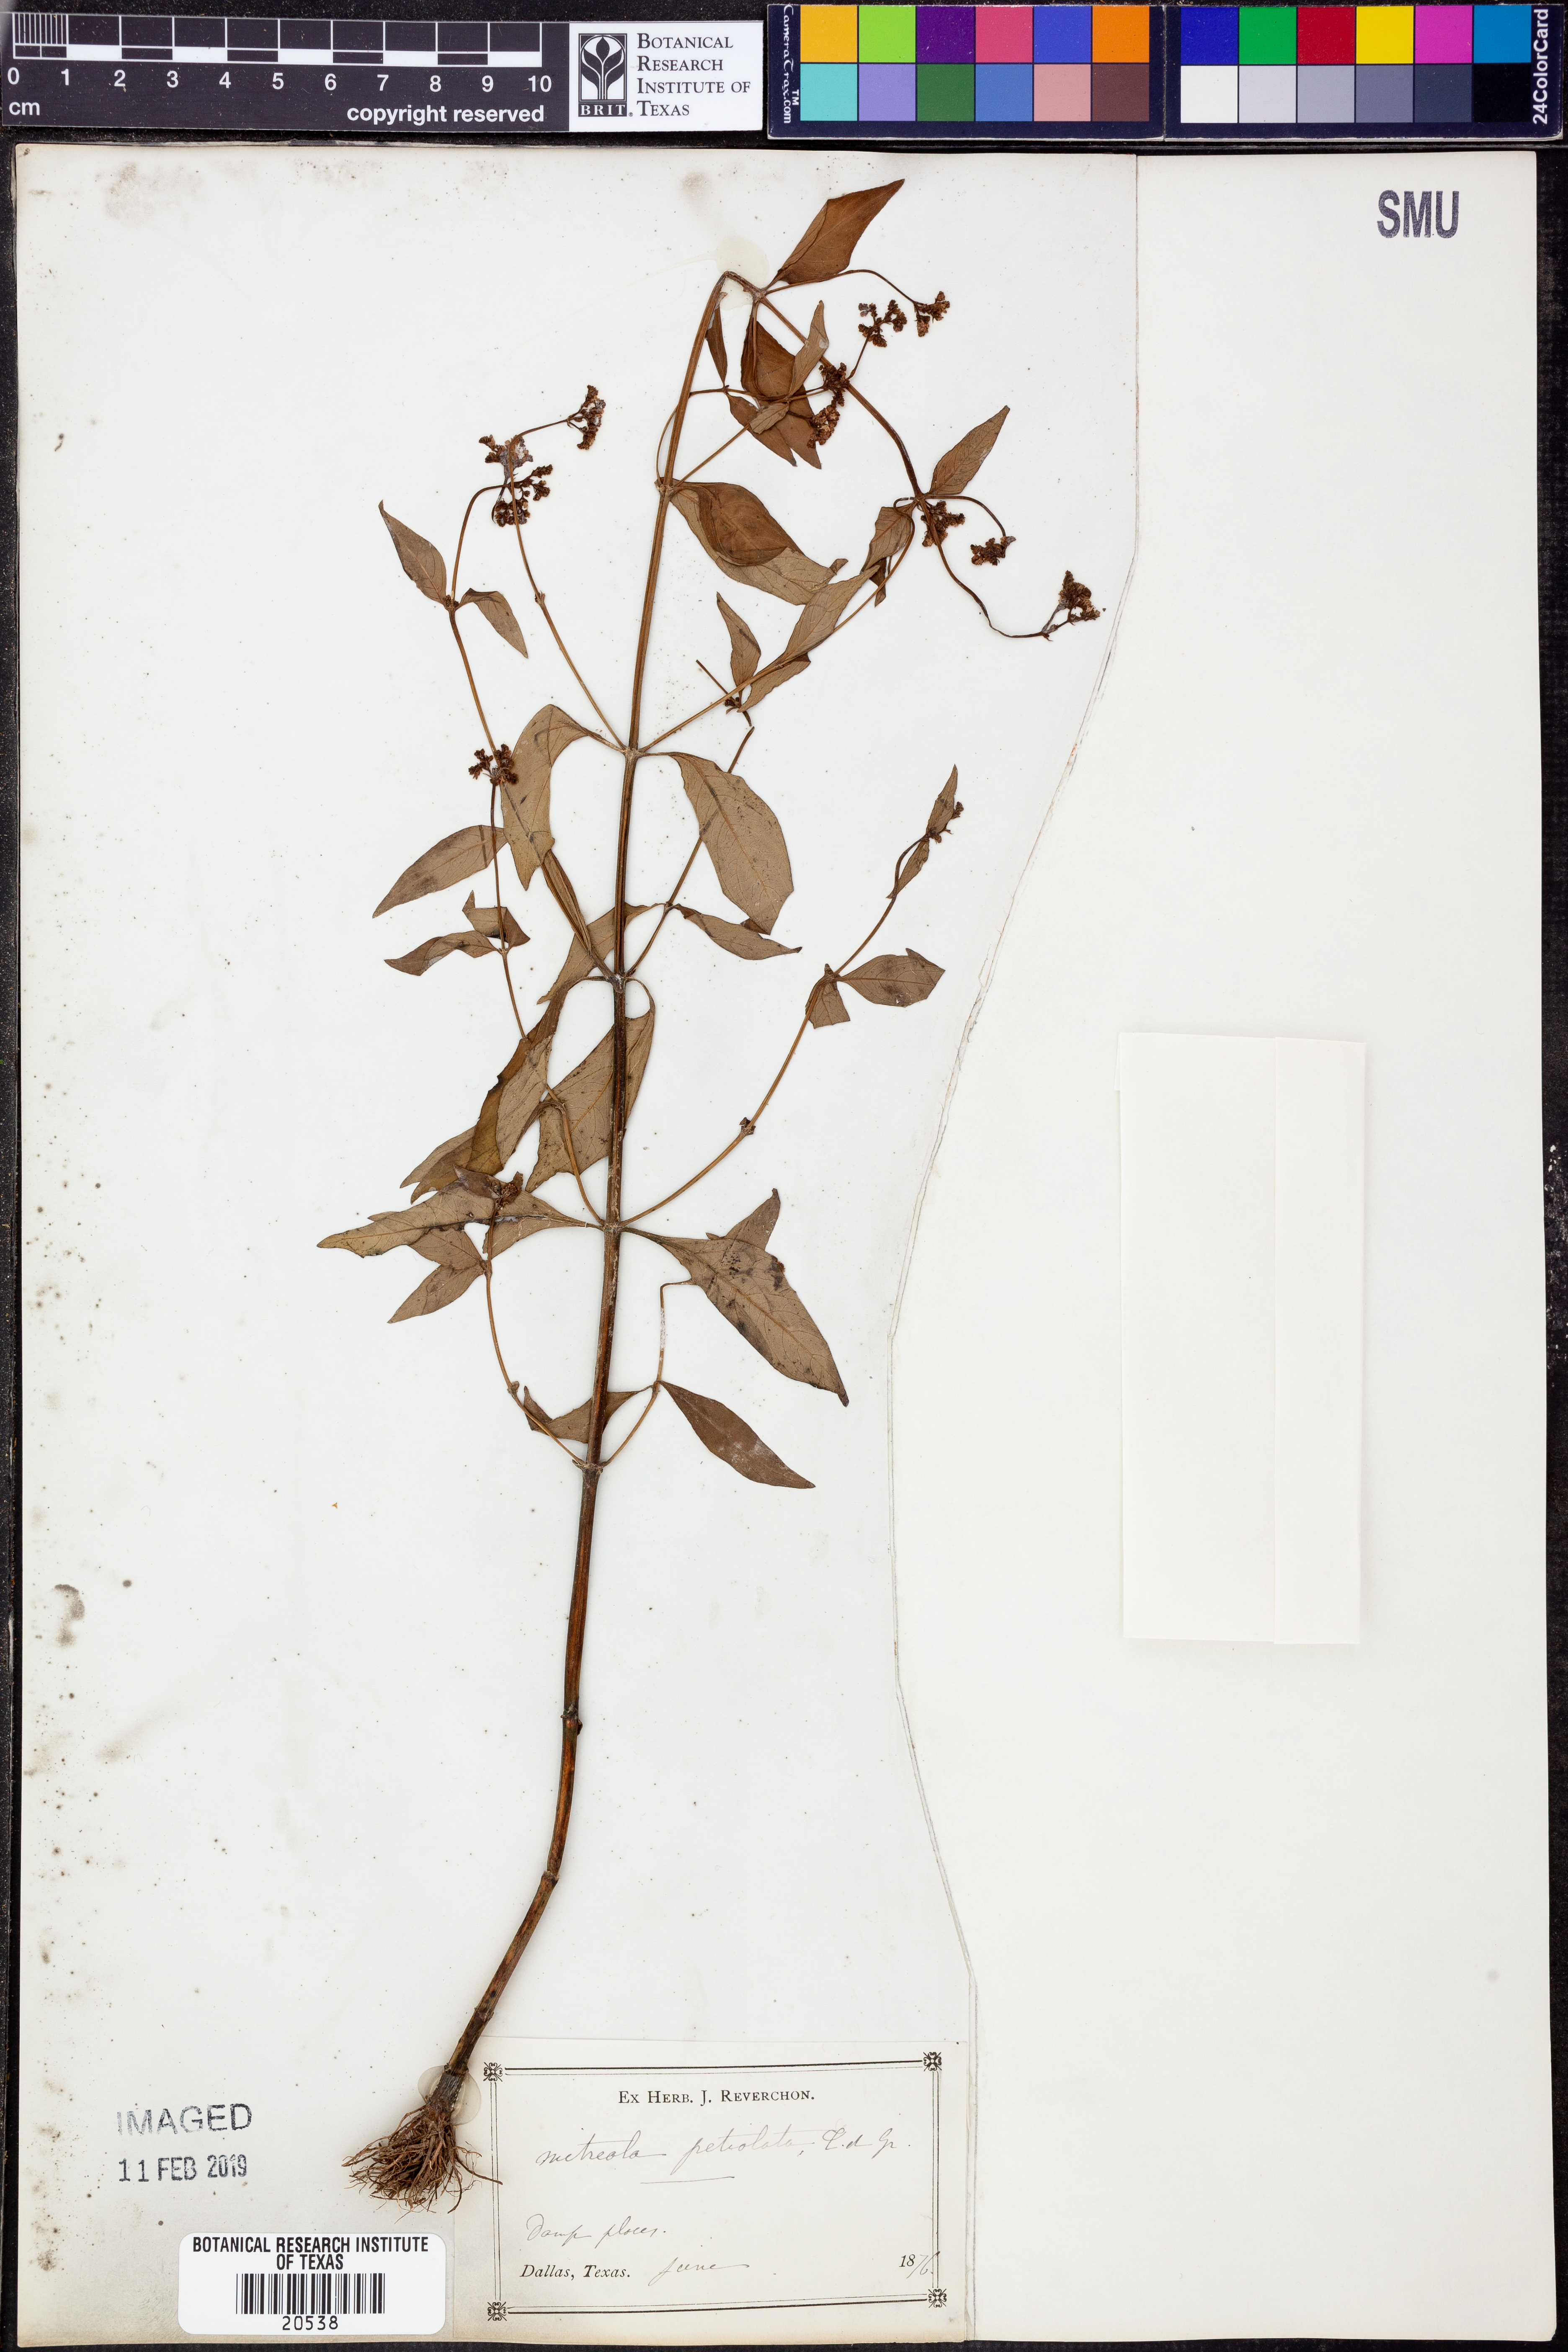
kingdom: Plantae
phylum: Tracheophyta
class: Magnoliopsida
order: Gentianales
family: Loganiaceae
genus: Mitreola
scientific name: Mitreola petiolata
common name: Lax hornpod
